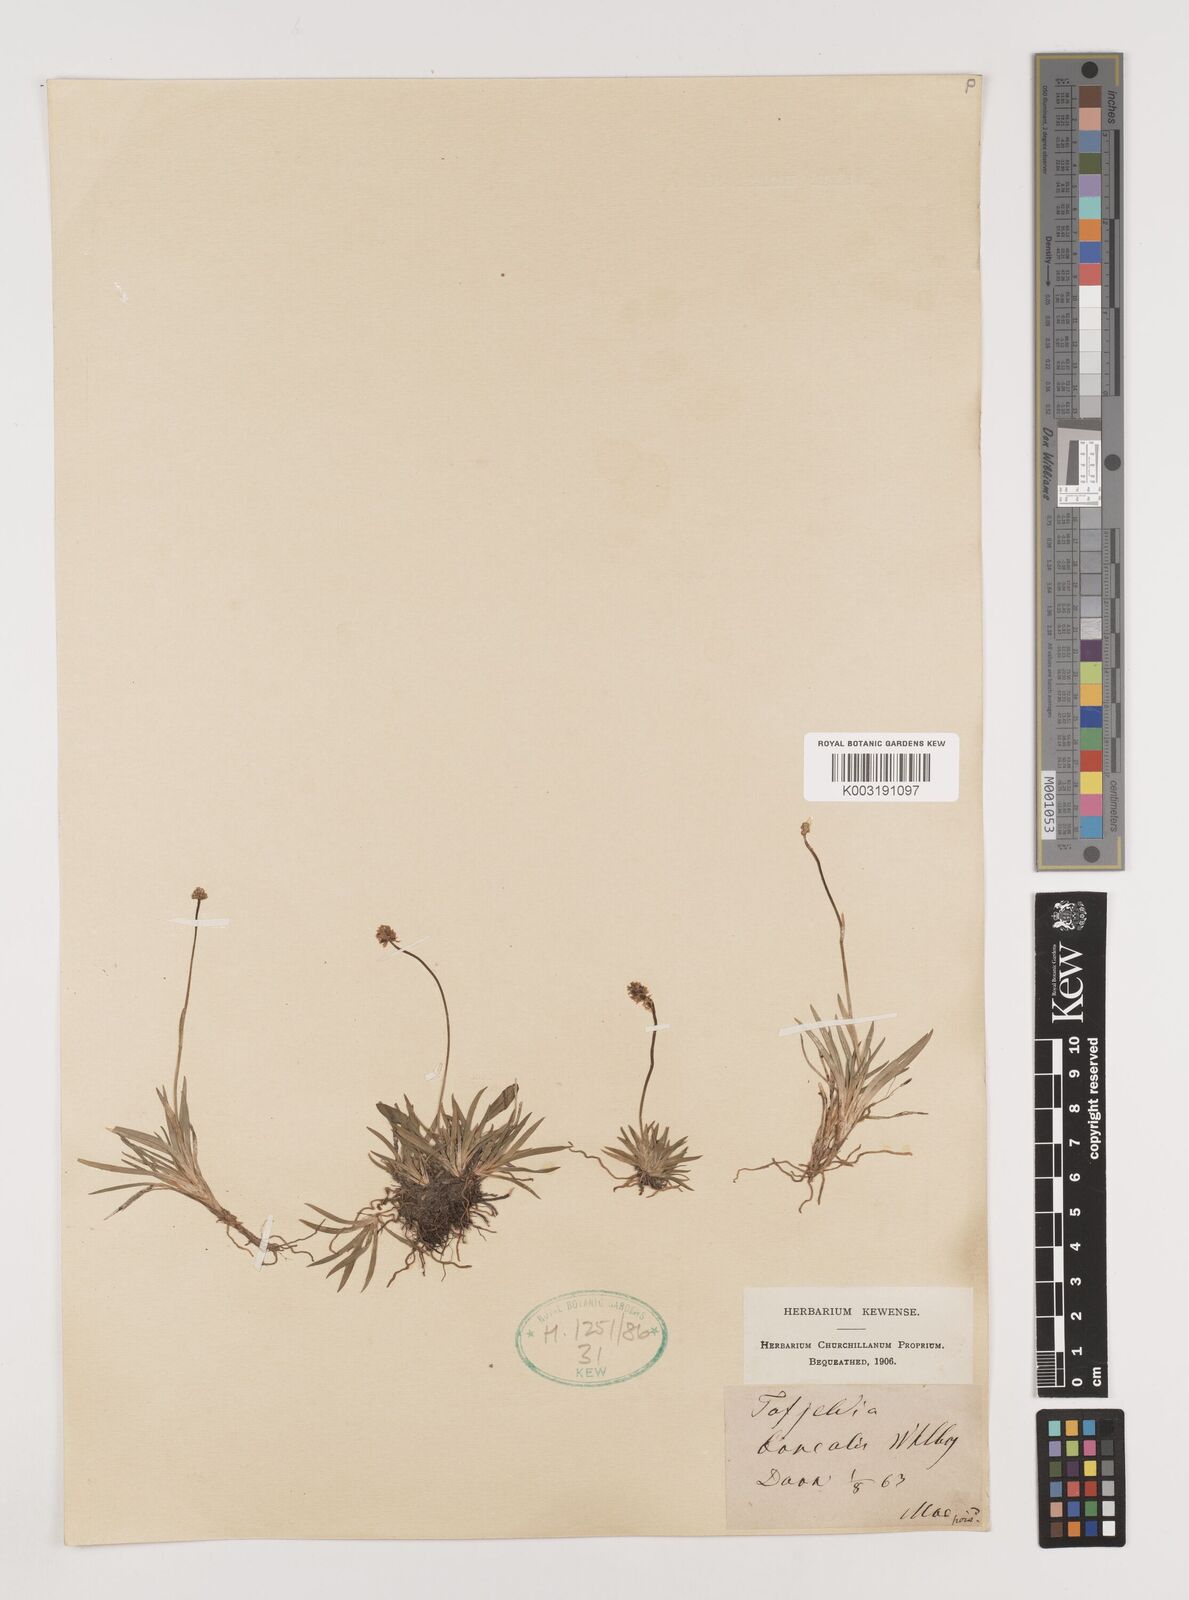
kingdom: Plantae
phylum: Tracheophyta
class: Liliopsida
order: Alismatales
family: Tofieldiaceae
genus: Tofieldia
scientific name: Tofieldia pusilla
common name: Scottish false asphodel
